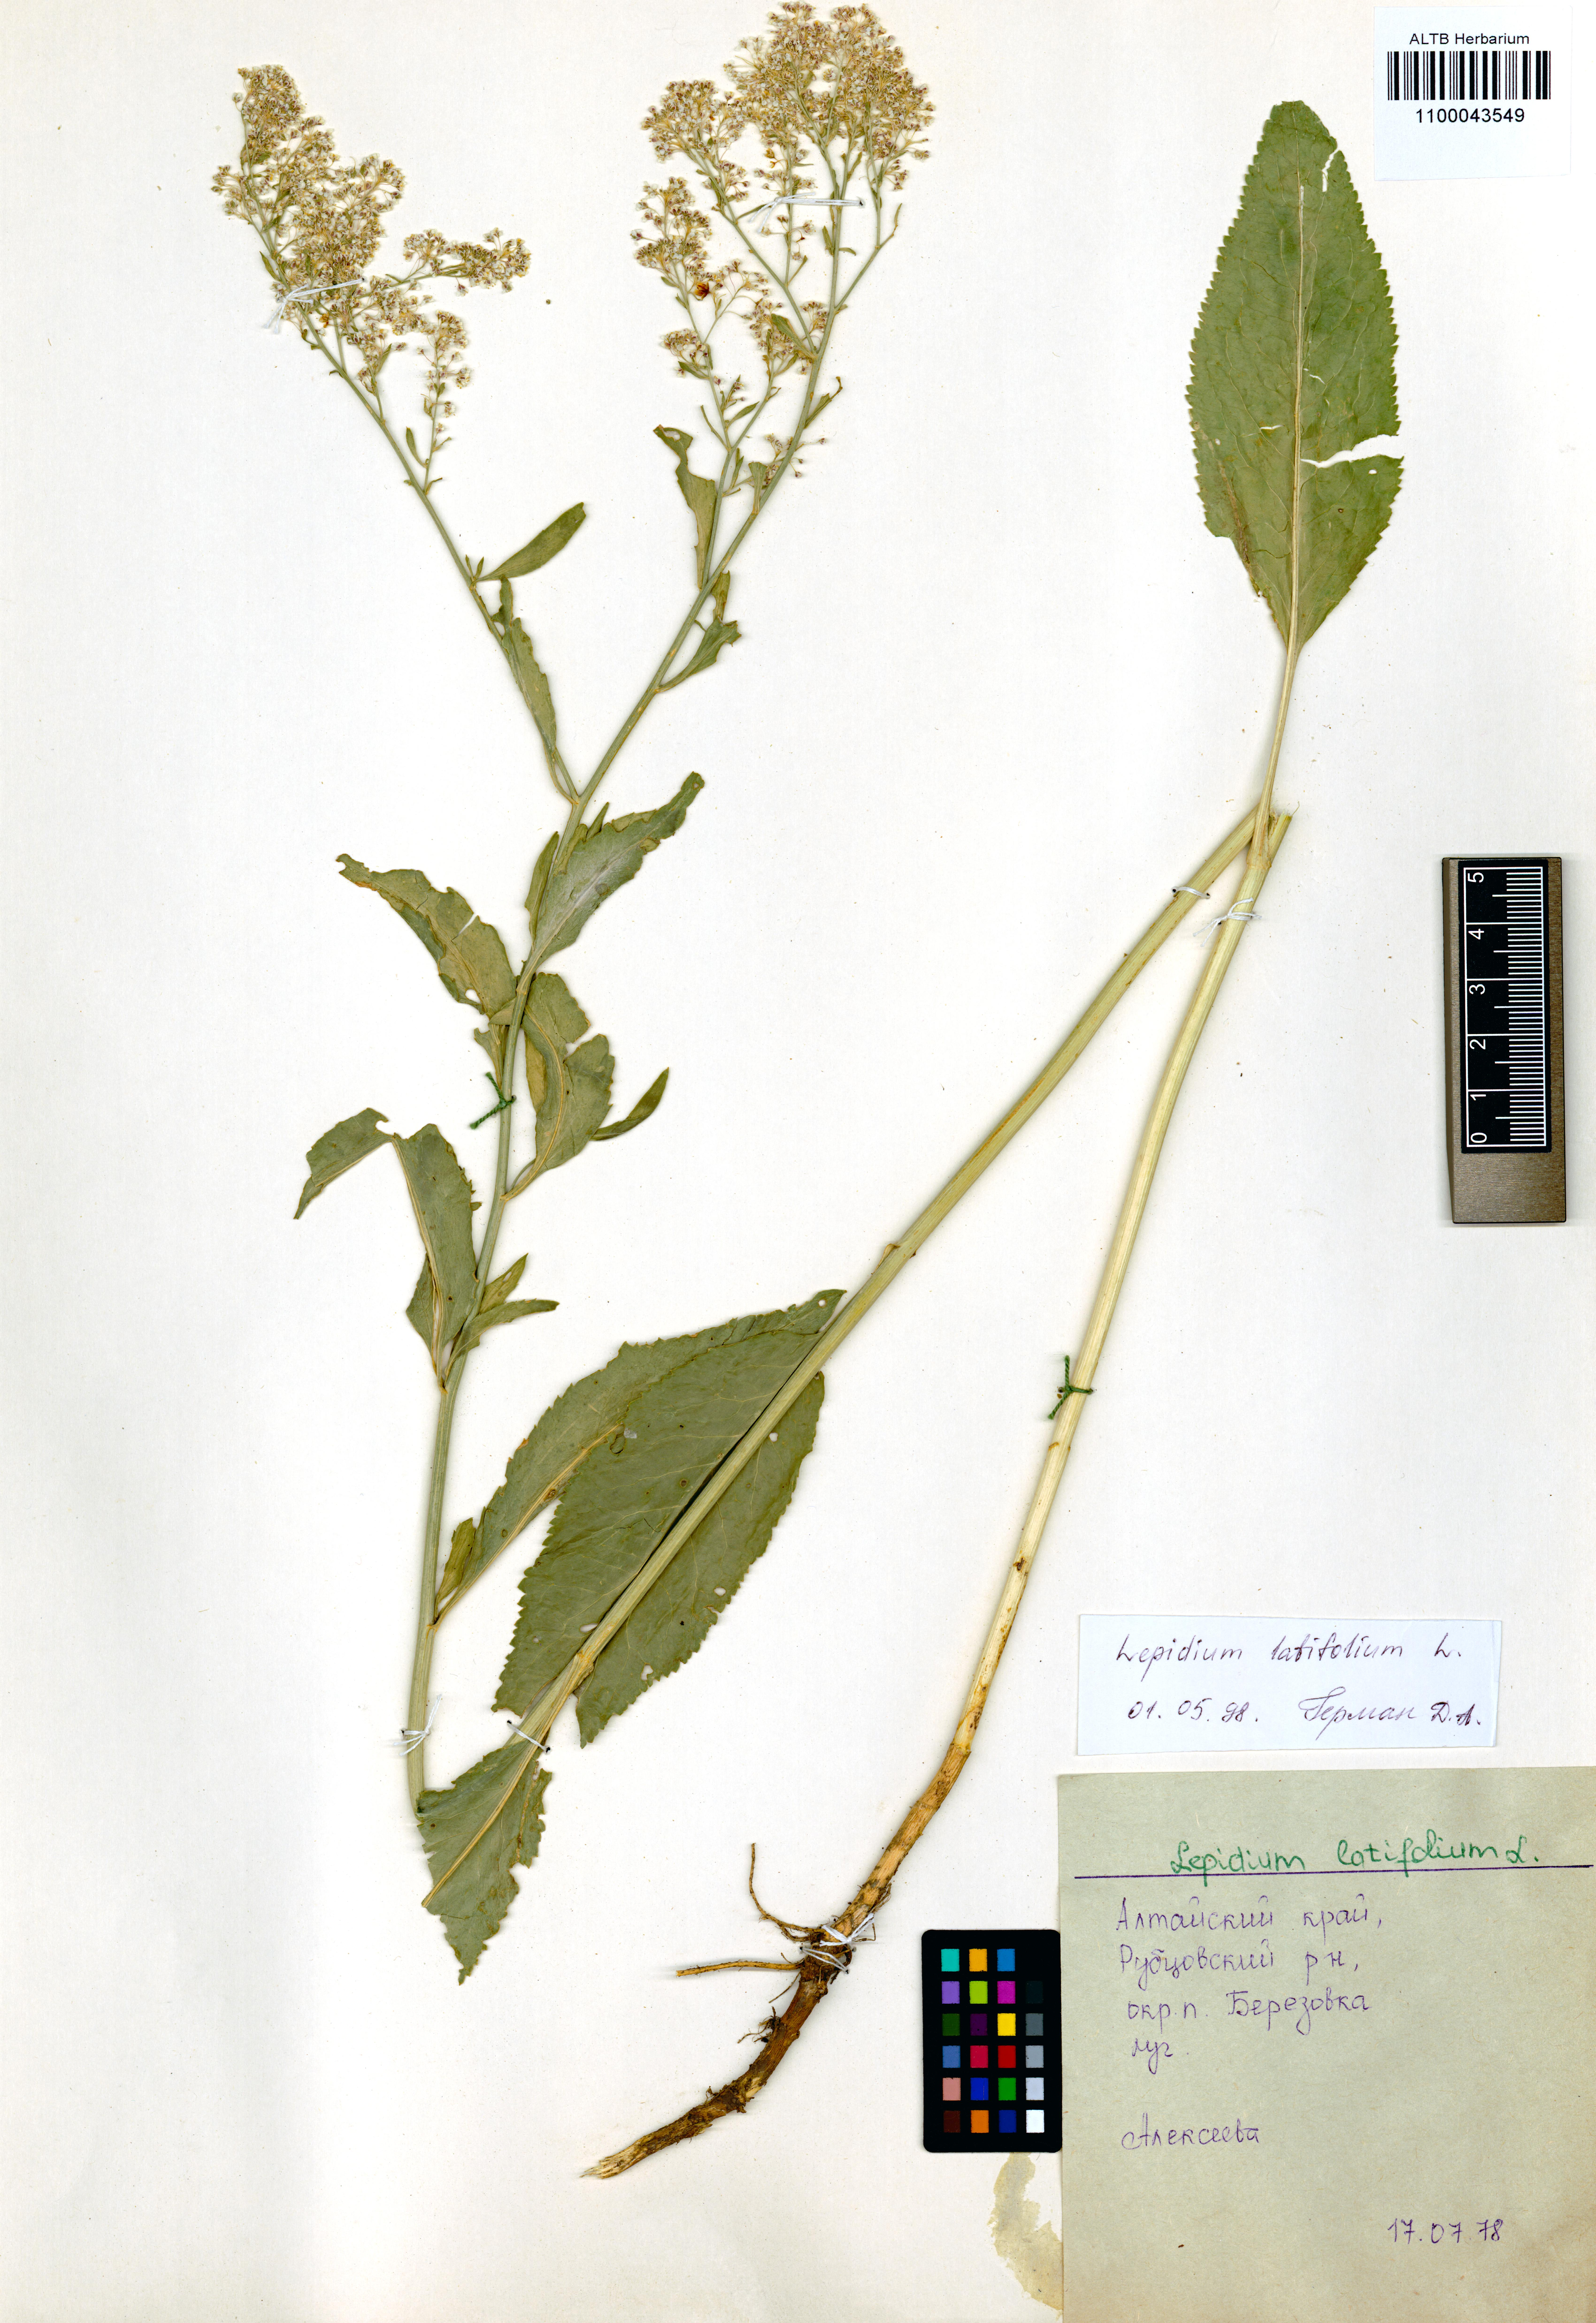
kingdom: Plantae
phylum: Tracheophyta
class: Magnoliopsida
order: Brassicales
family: Brassicaceae
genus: Lepidium
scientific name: Lepidium latifolium
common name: Dittander
